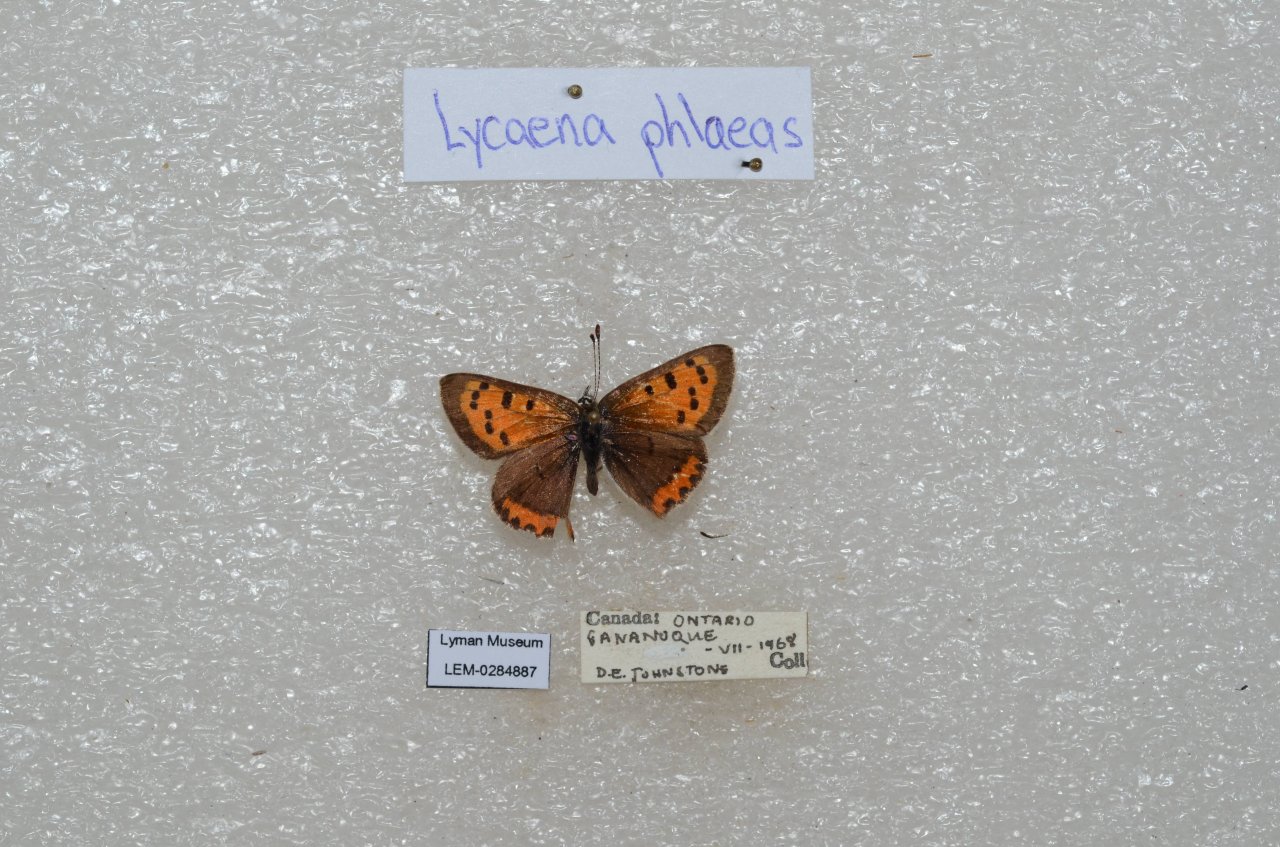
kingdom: Animalia
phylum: Arthropoda
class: Insecta
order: Lepidoptera
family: Lycaenidae
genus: Lycaena
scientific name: Lycaena phlaeas
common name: American Copper
